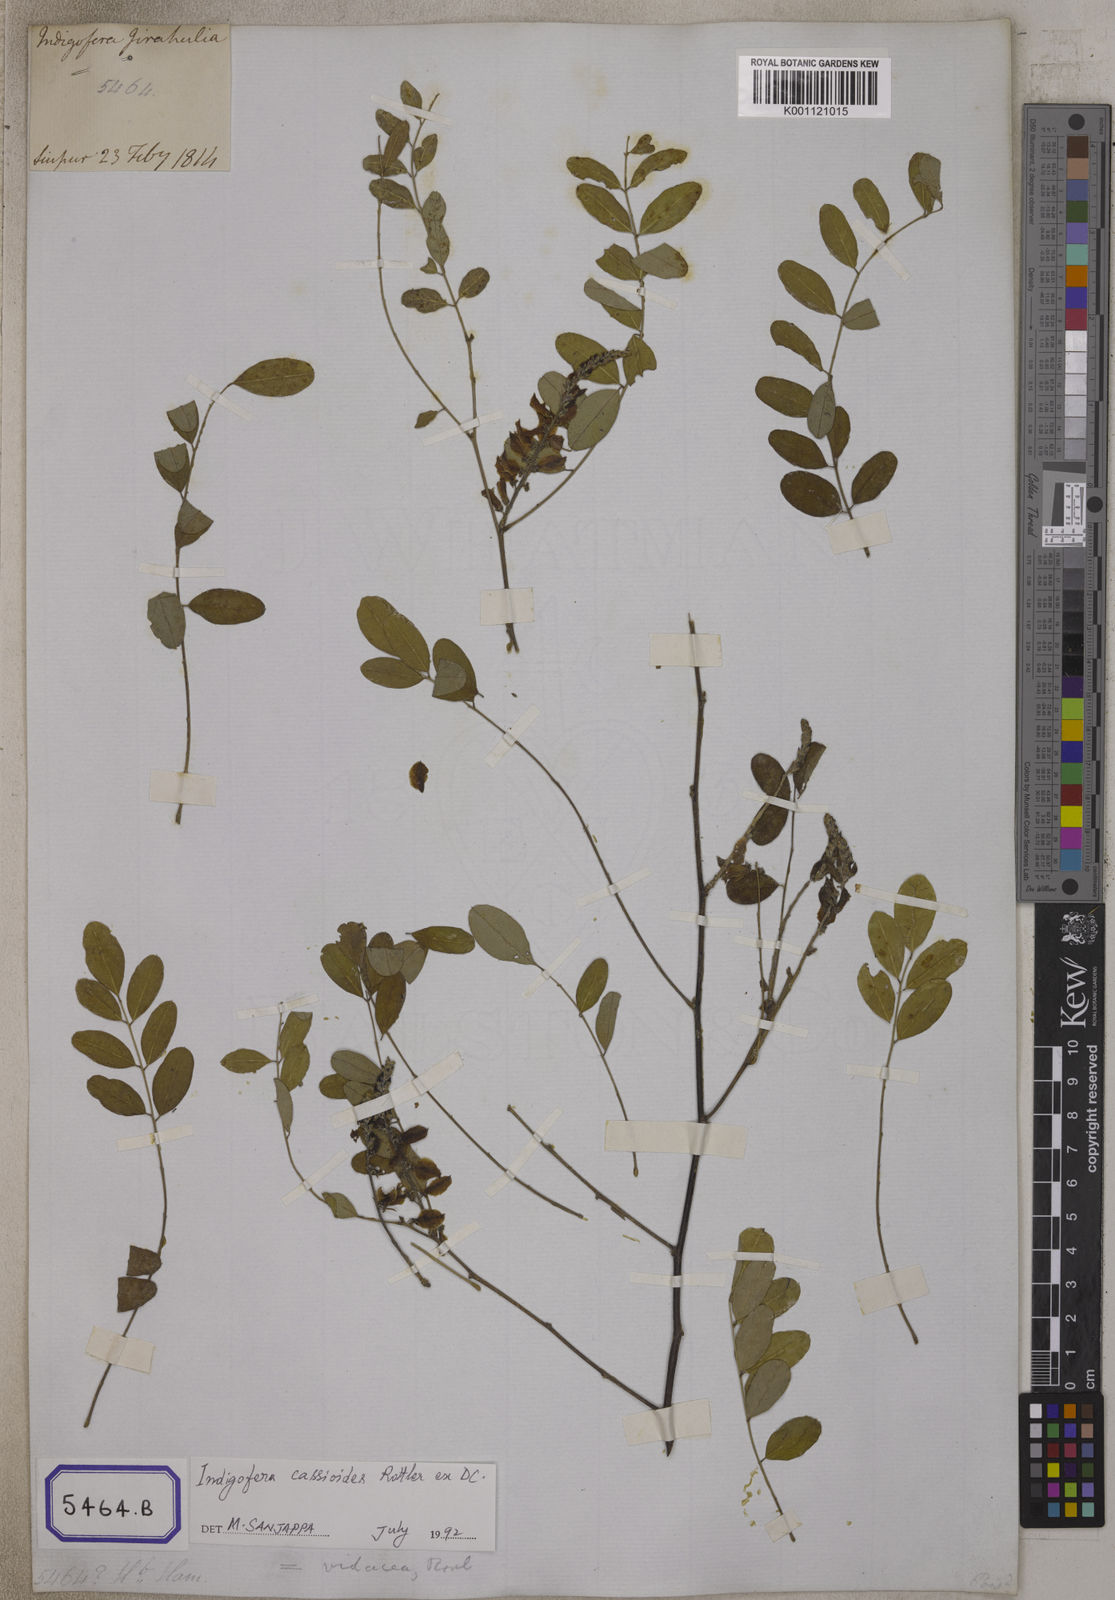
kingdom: Plantae
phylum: Tracheophyta
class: Magnoliopsida
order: Fabales
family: Fabaceae
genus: Indigofera
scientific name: Indigofera cassioides
